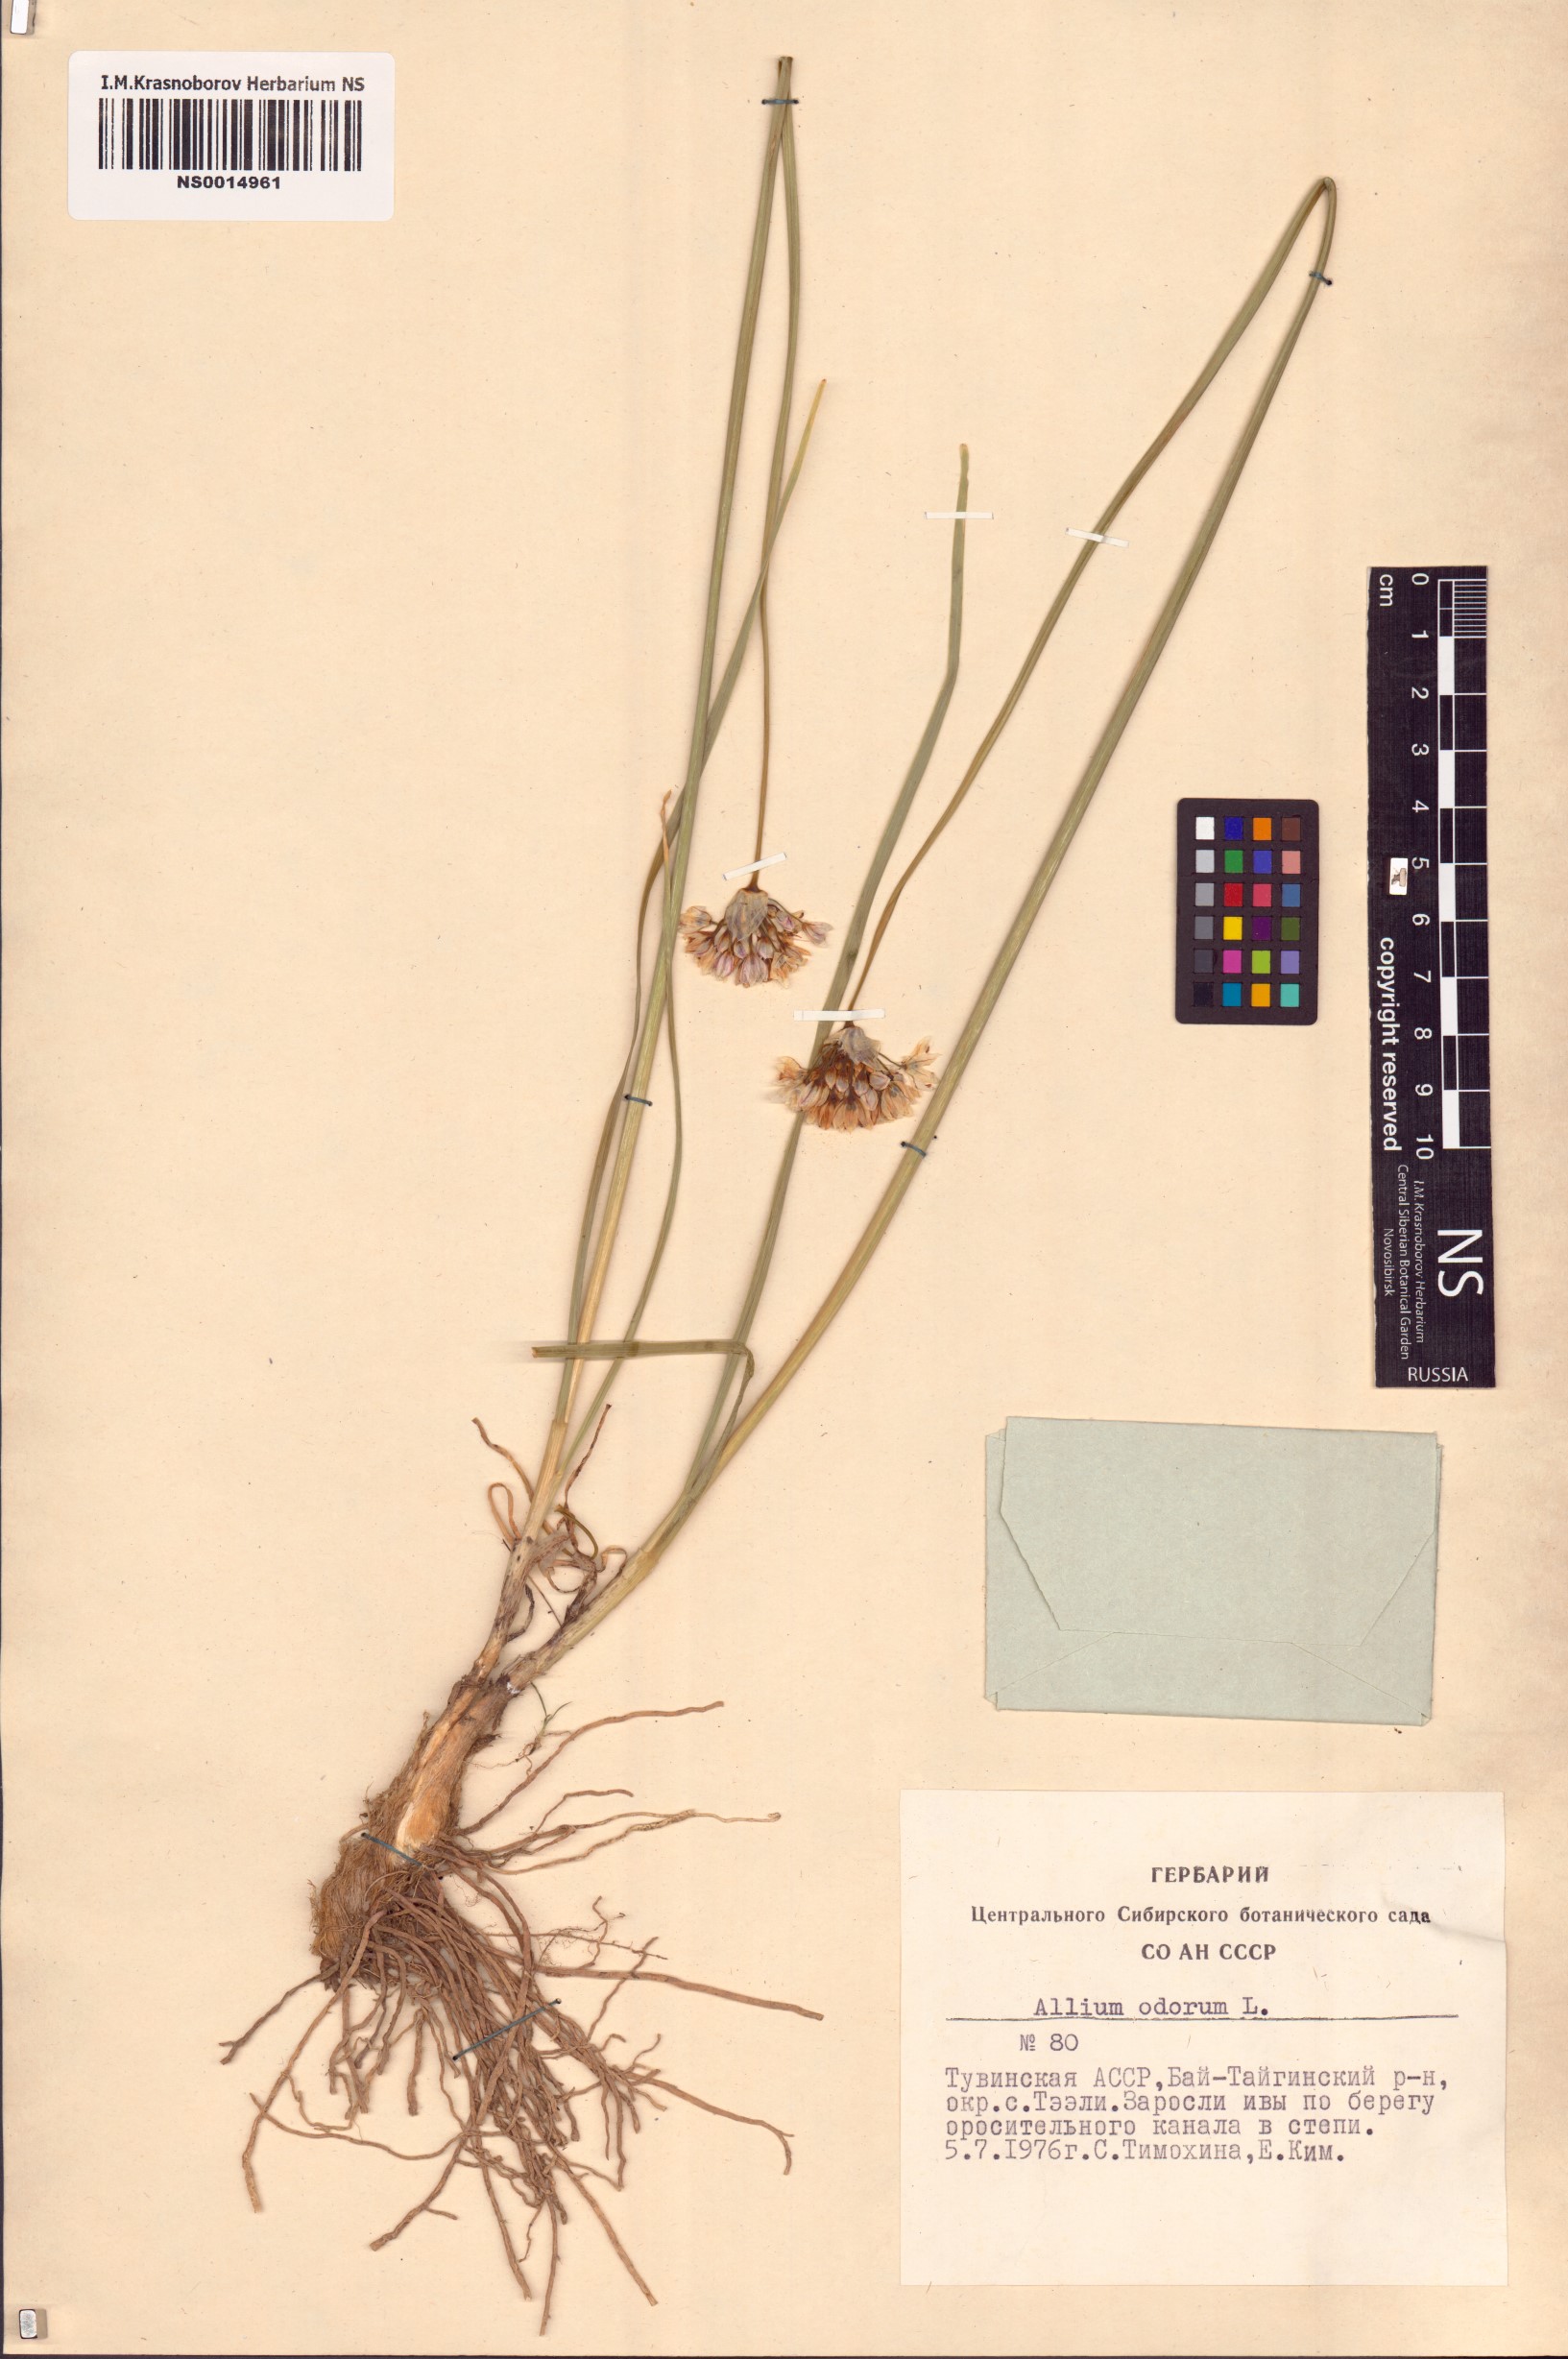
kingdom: Plantae
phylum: Tracheophyta
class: Liliopsida
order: Asparagales
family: Amaryllidaceae
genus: Allium
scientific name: Allium ramosum
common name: Fragrant garlic
